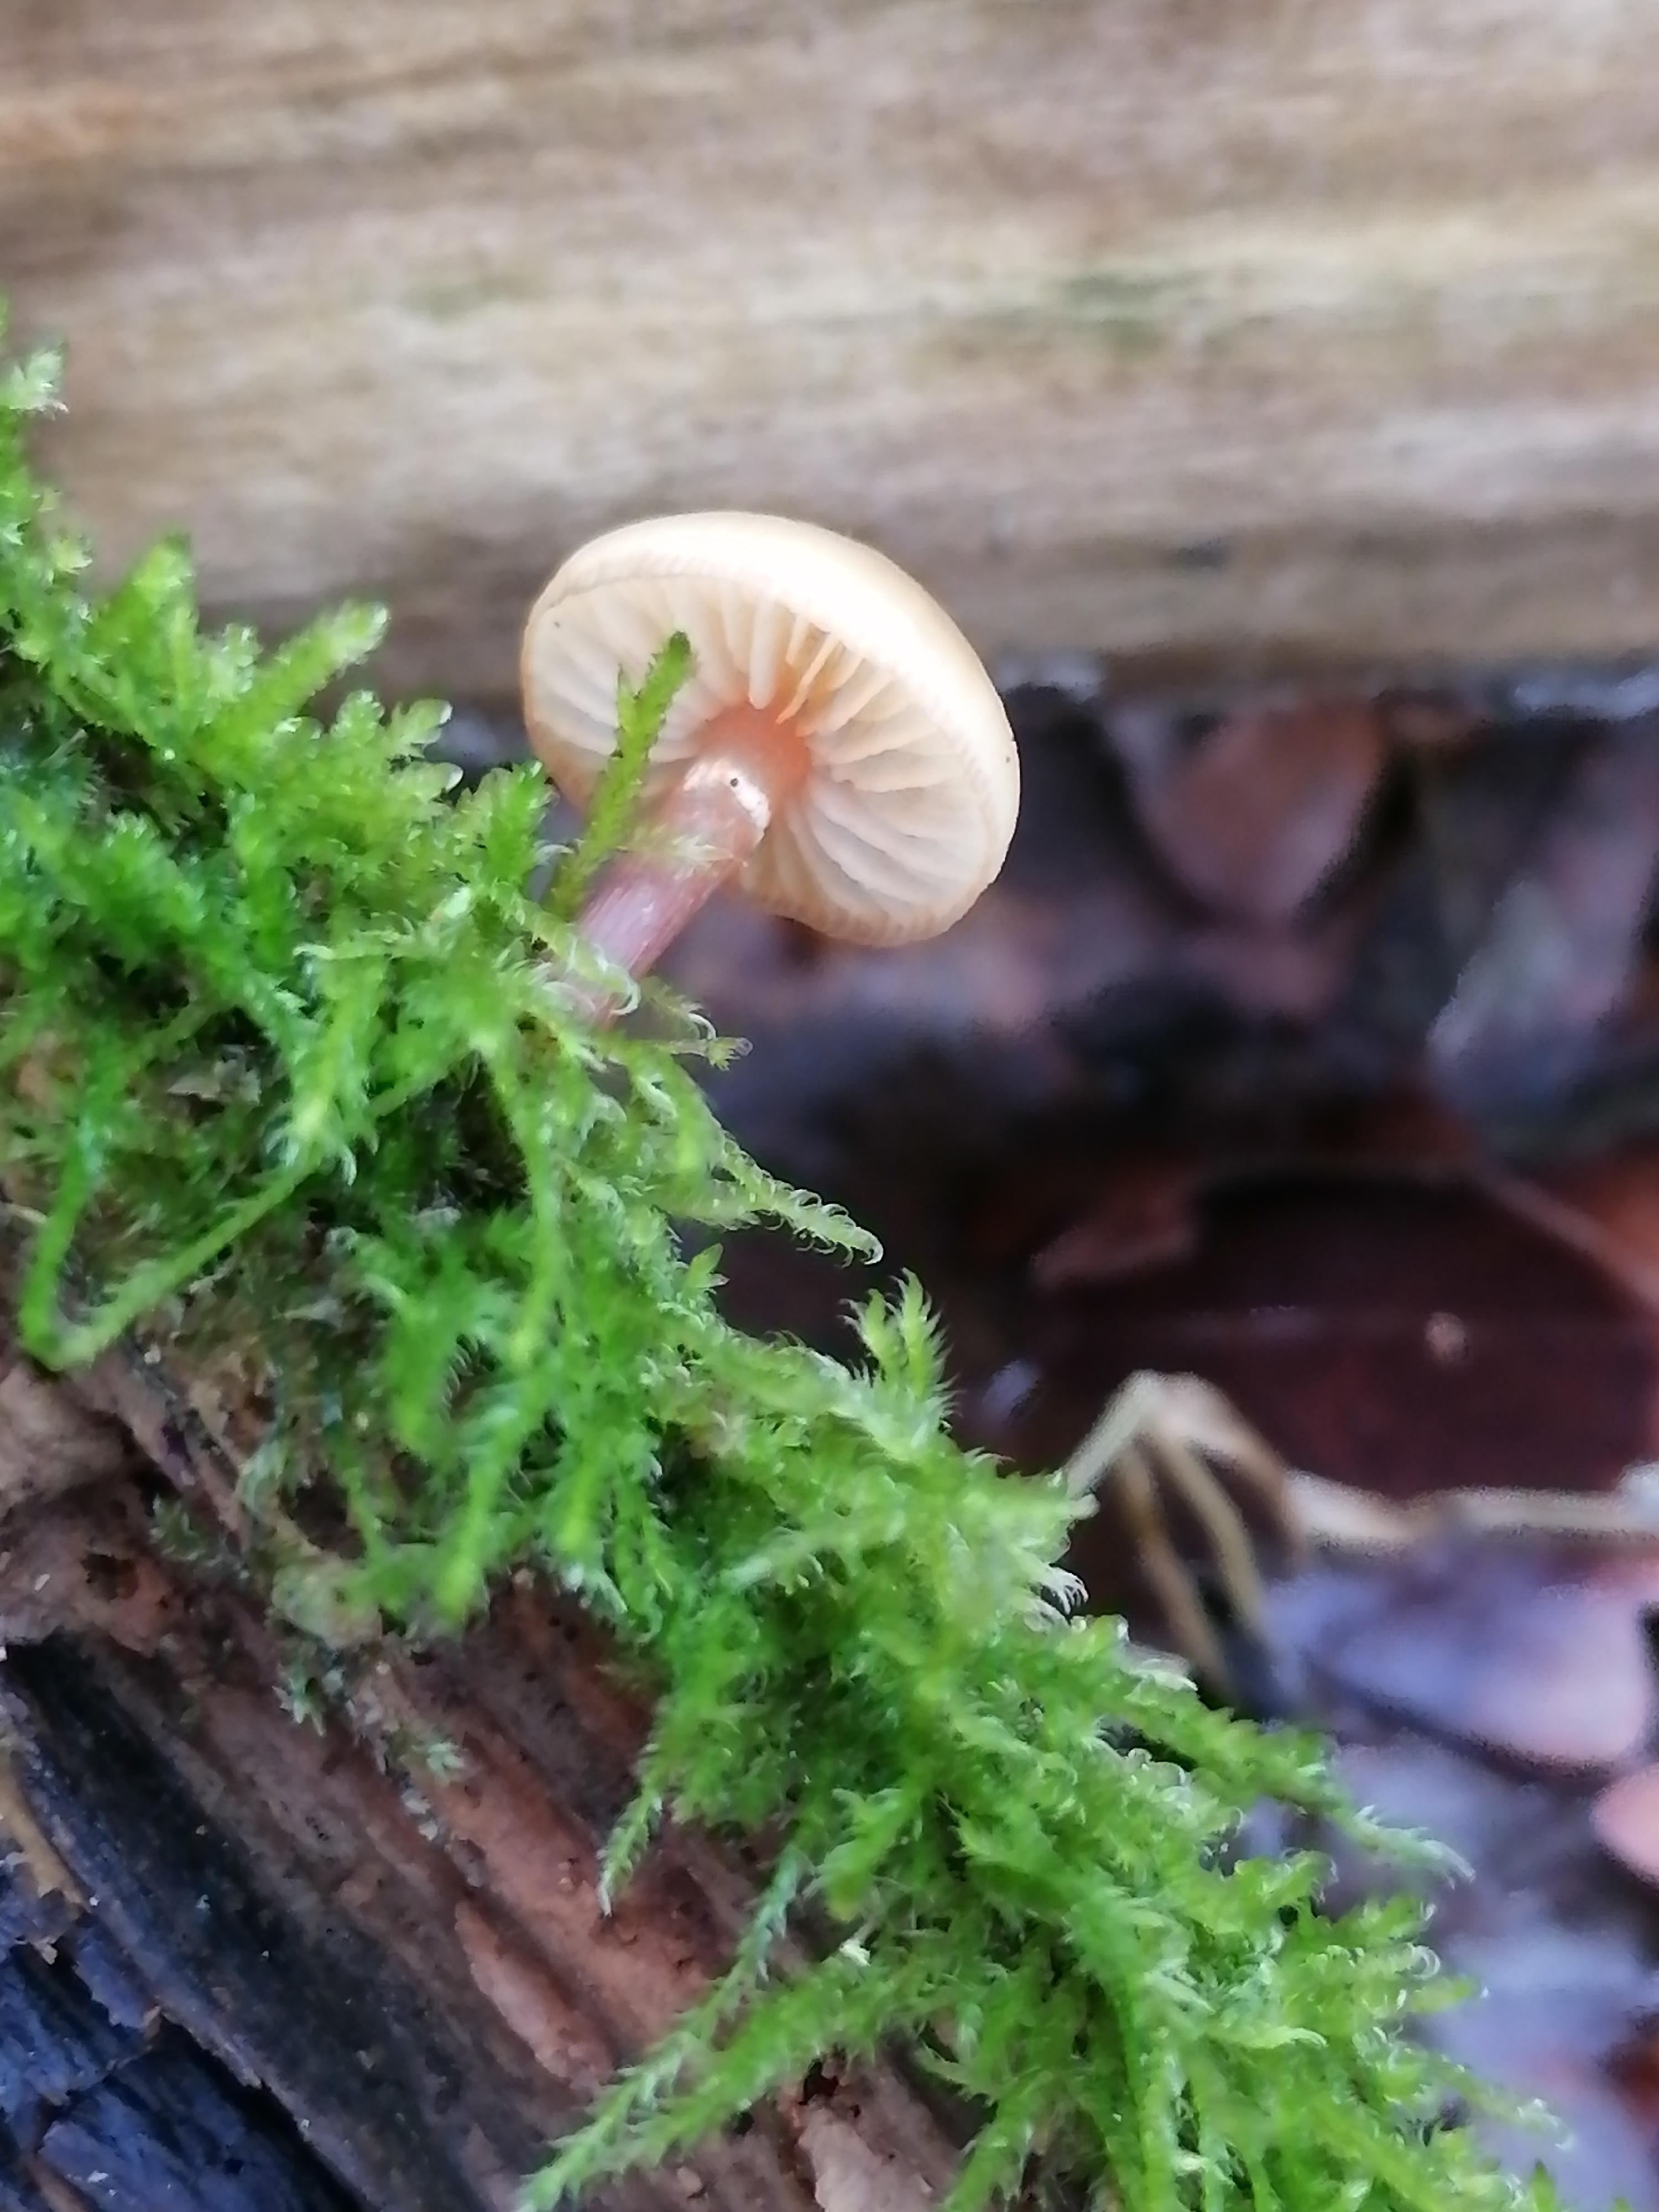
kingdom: Fungi
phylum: Basidiomycota
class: Agaricomycetes
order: Agaricales
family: Hymenogastraceae
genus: Galerina
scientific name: Galerina marginata
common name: randbæltet hjelmhat
